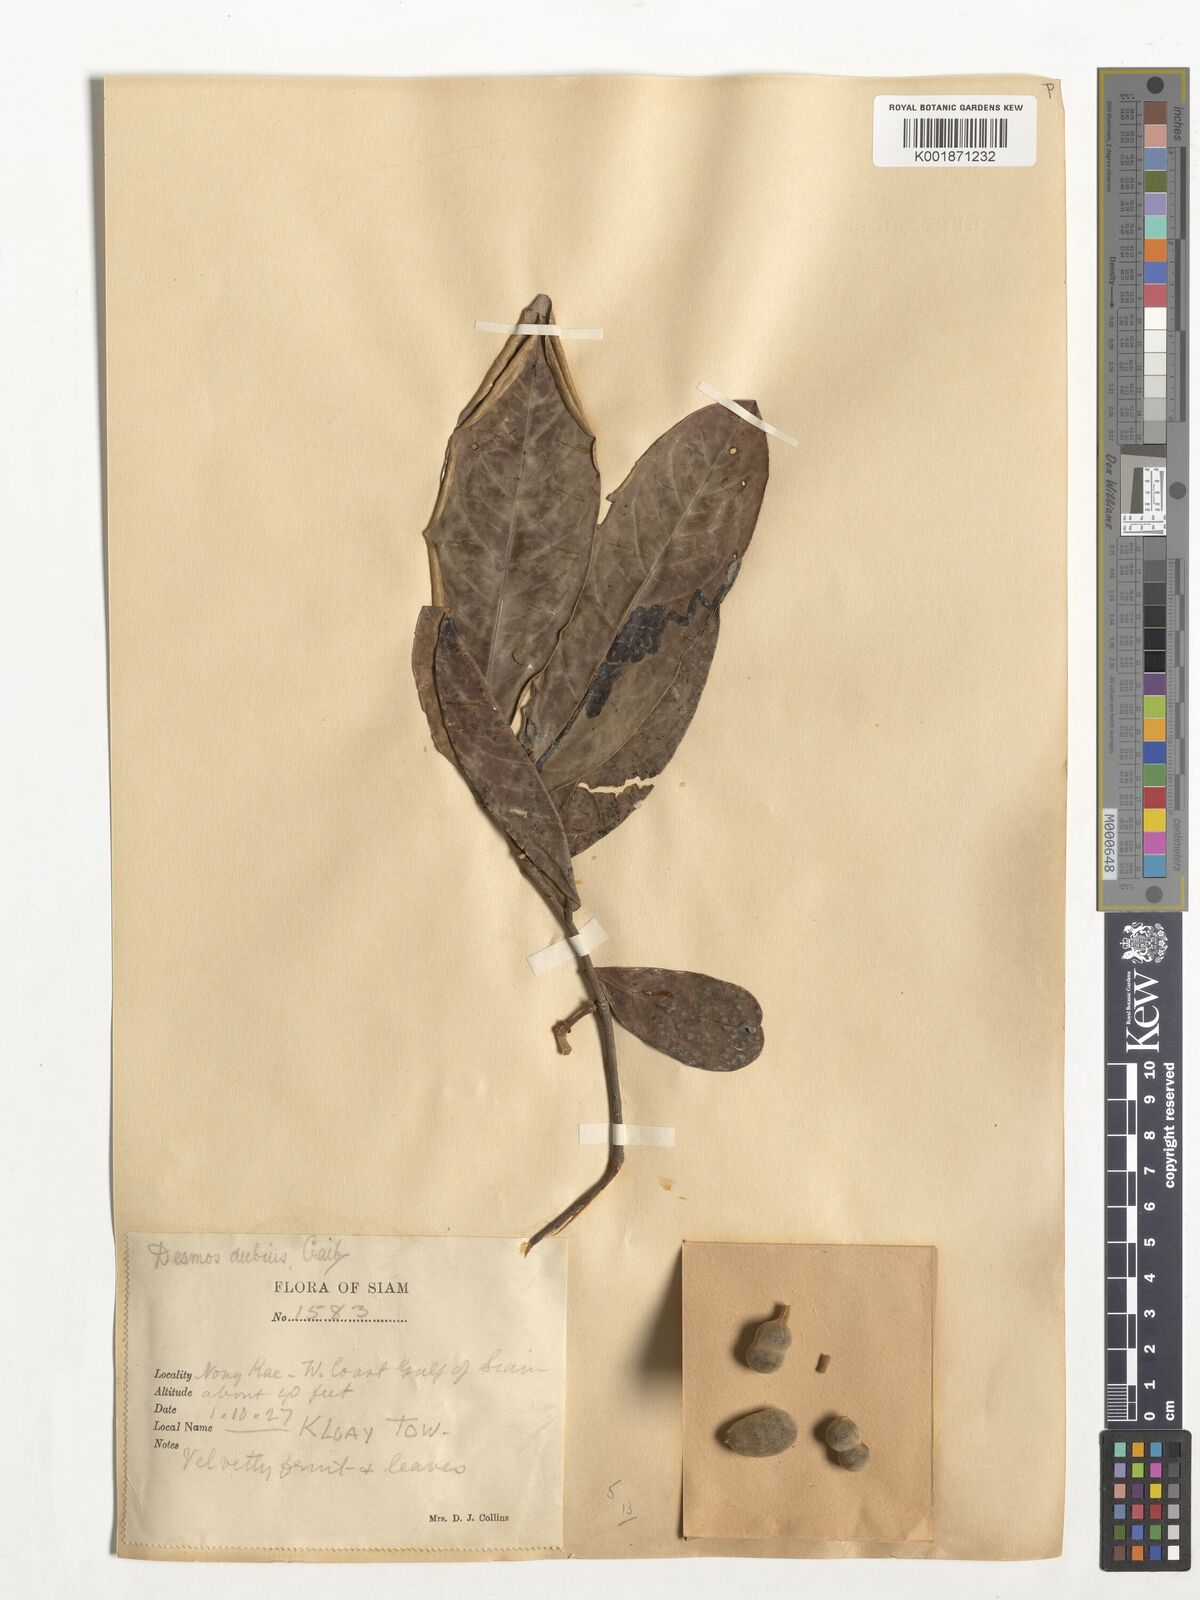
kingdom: Plantae
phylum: Tracheophyta
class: Magnoliopsida
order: Magnoliales
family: Annonaceae
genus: Polyalthia
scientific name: Polyalthia
